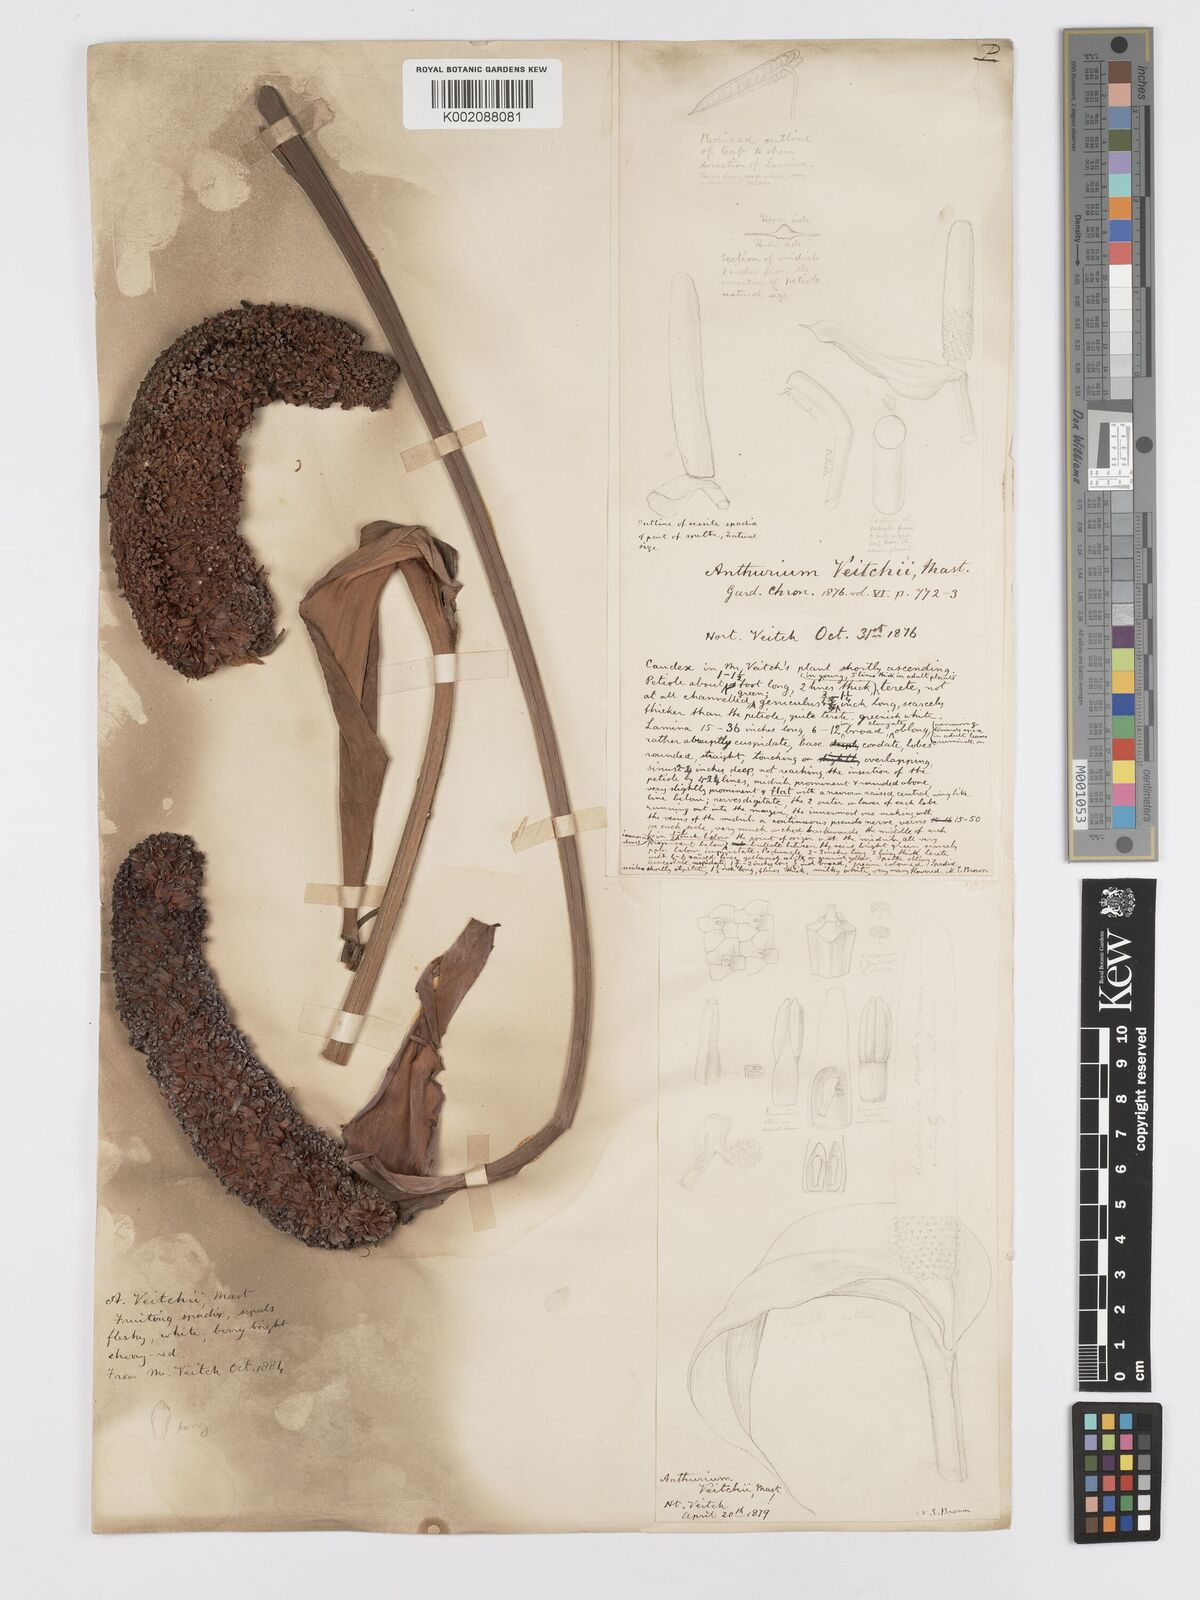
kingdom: Plantae
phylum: Tracheophyta
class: Liliopsida
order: Alismatales
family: Araceae
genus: Anthurium
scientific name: Anthurium veitchii
